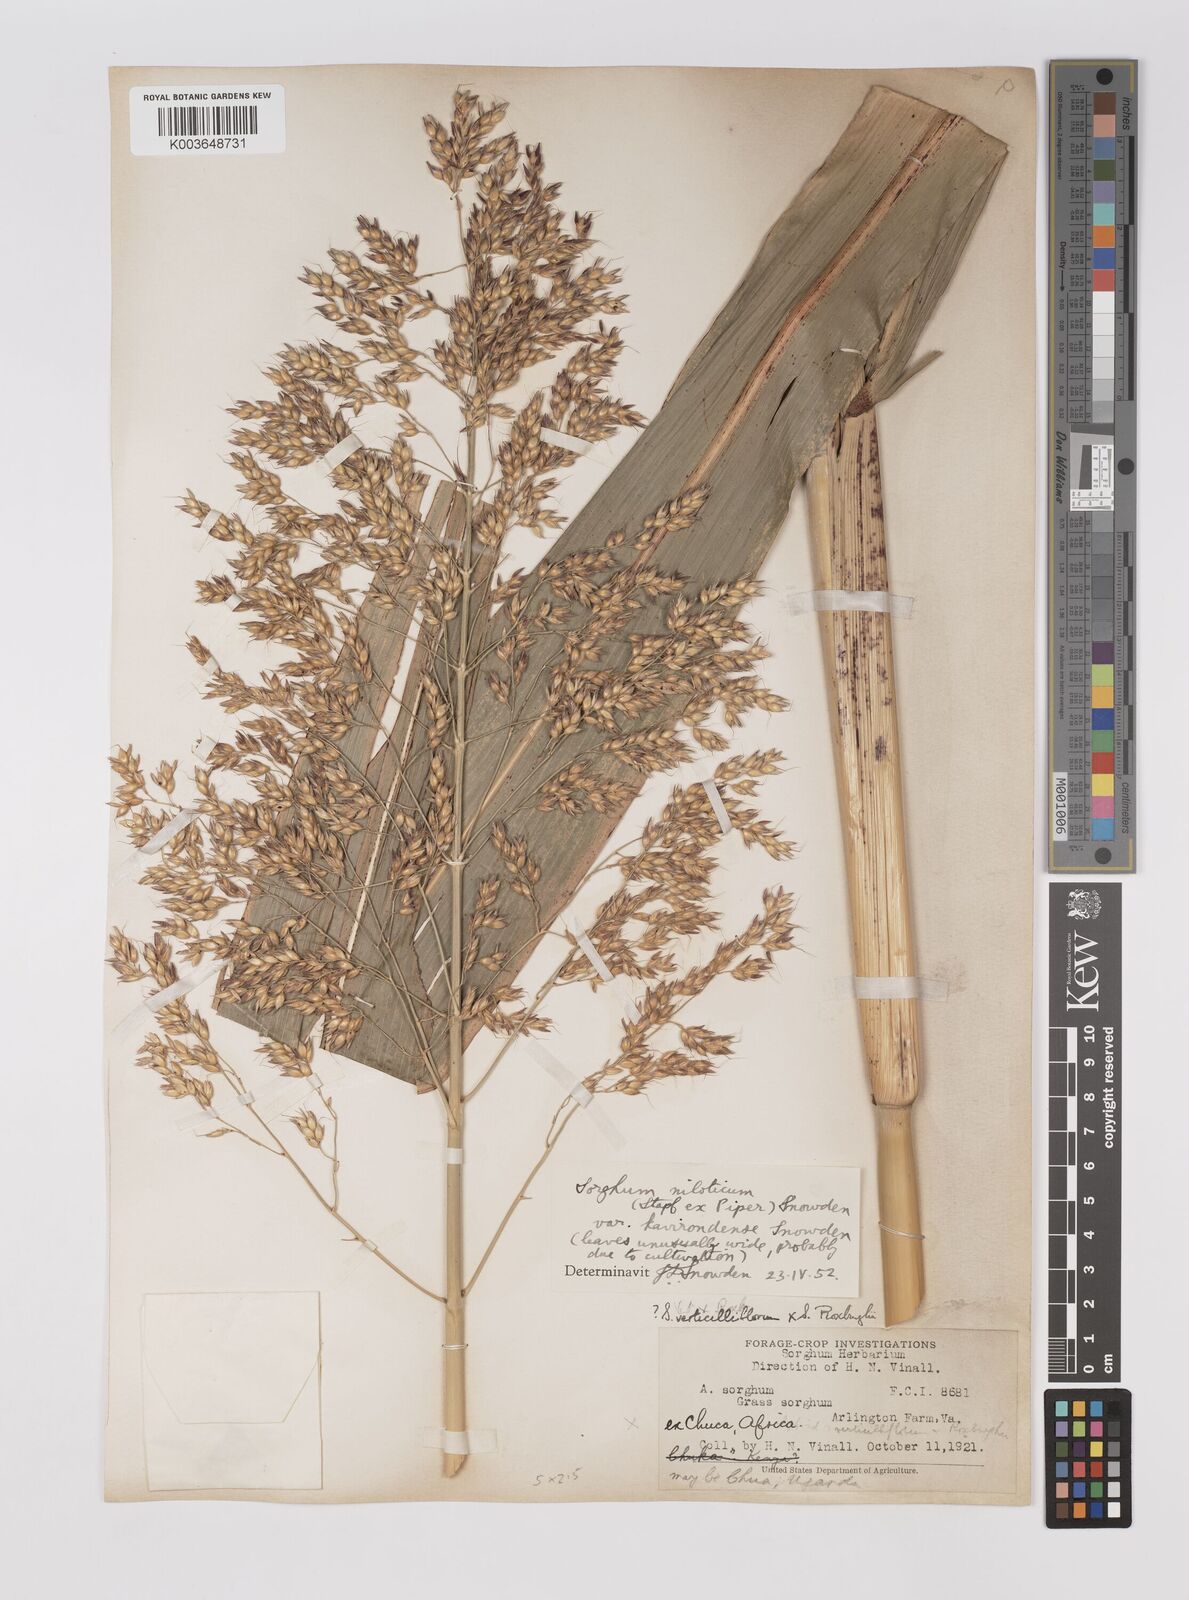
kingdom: Plantae
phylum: Tracheophyta
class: Liliopsida
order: Poales
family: Poaceae
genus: Sorghum
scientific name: Sorghum drummondii
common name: Sudangrass
